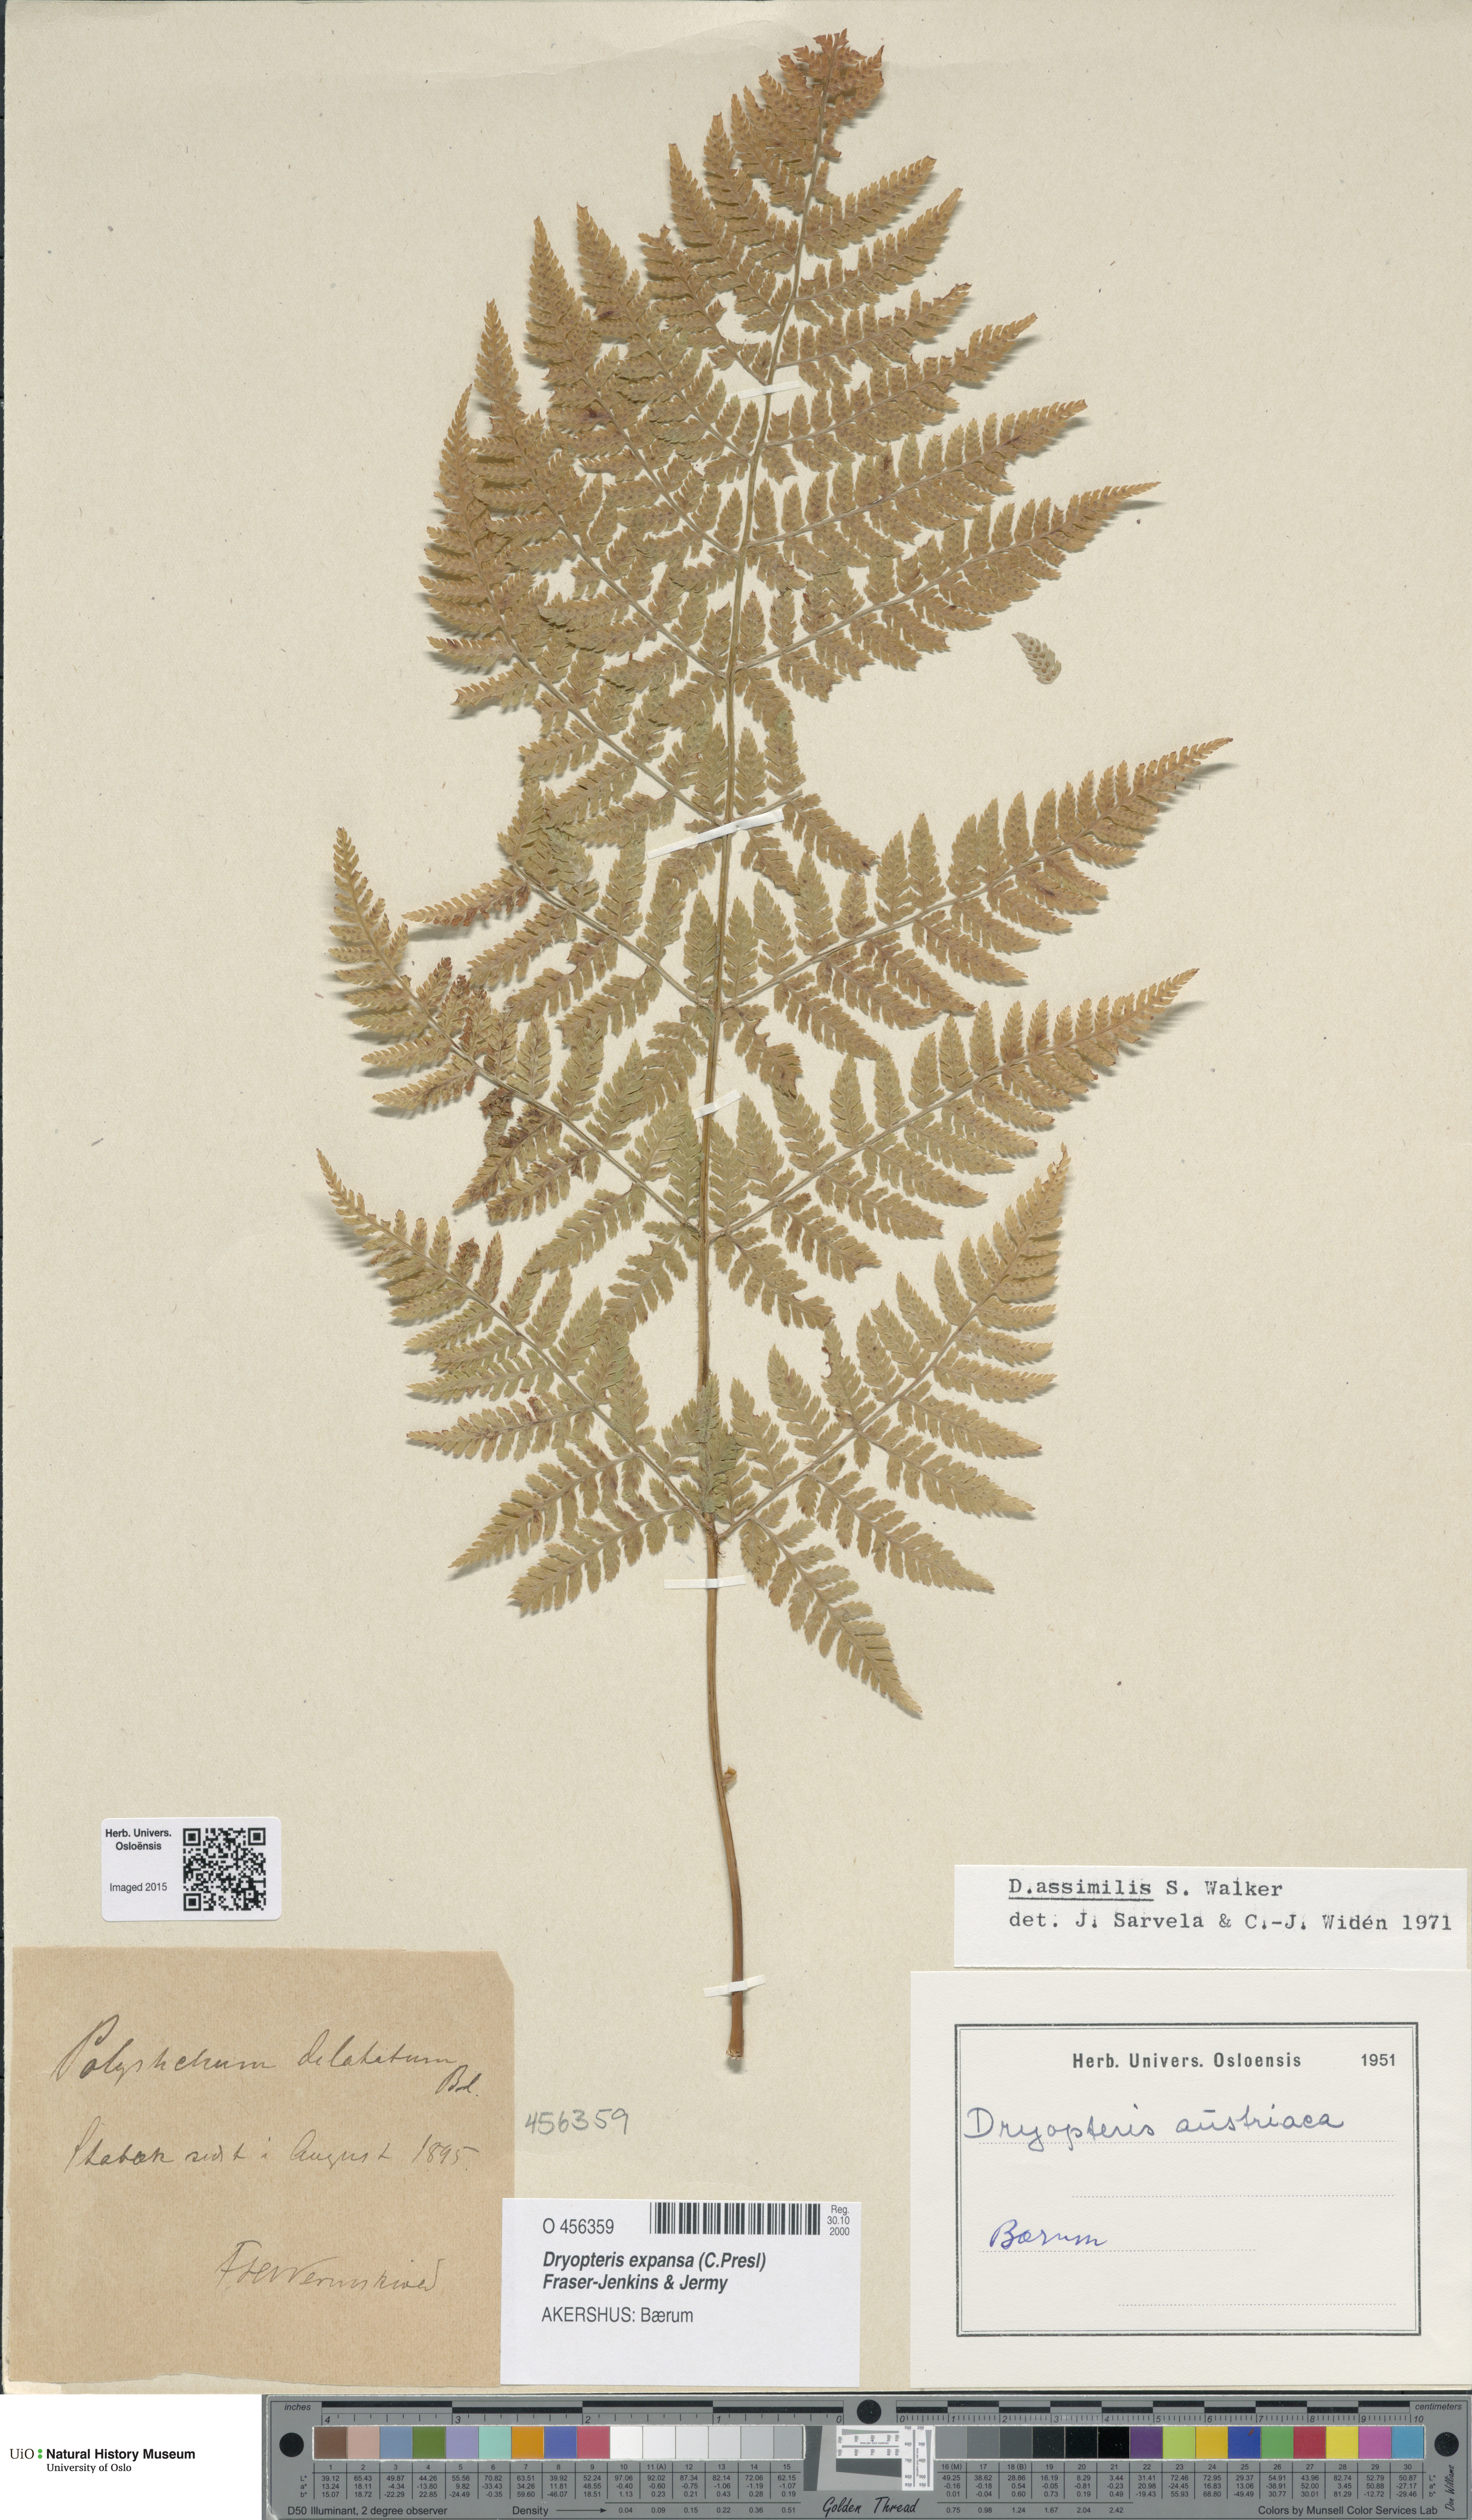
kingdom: Plantae
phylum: Tracheophyta
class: Polypodiopsida
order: Polypodiales
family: Dryopteridaceae
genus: Dryopteris
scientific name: Dryopteris expansa
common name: Northern buckler fern
